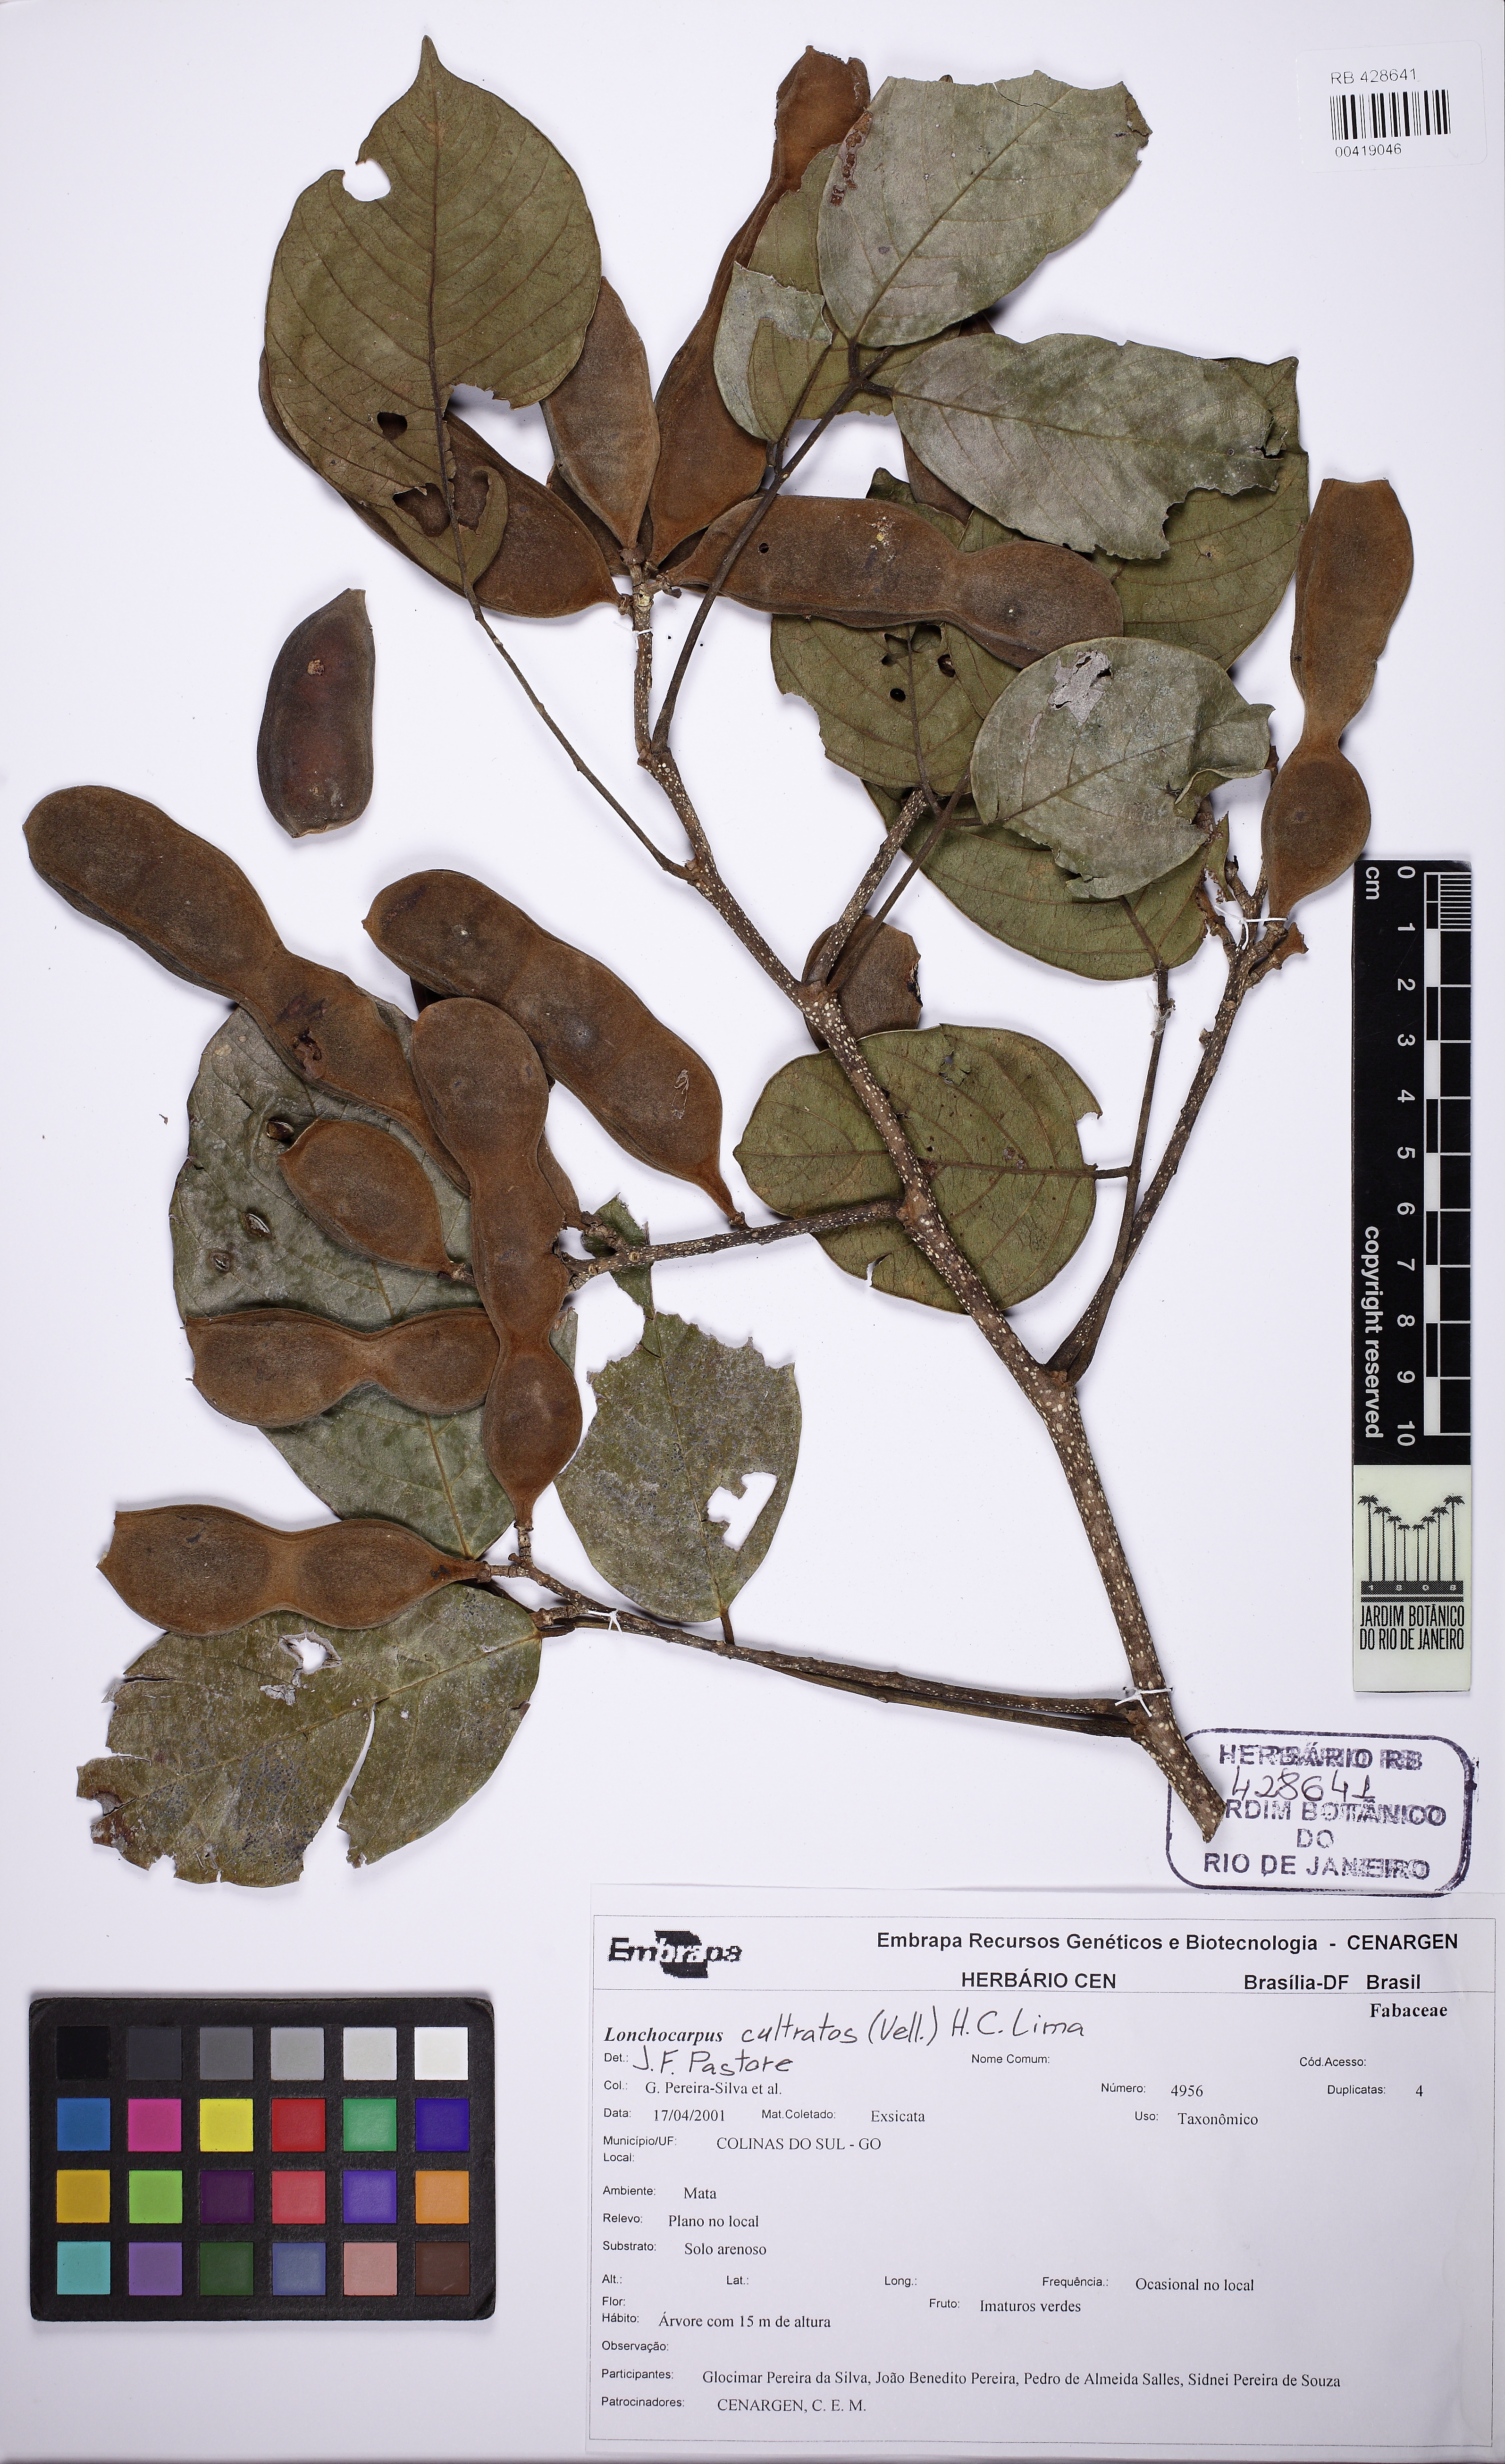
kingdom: Plantae
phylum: Tracheophyta
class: Magnoliopsida
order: Fabales
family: Fabaceae
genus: Lonchocarpus
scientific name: Lonchocarpus cultratus
